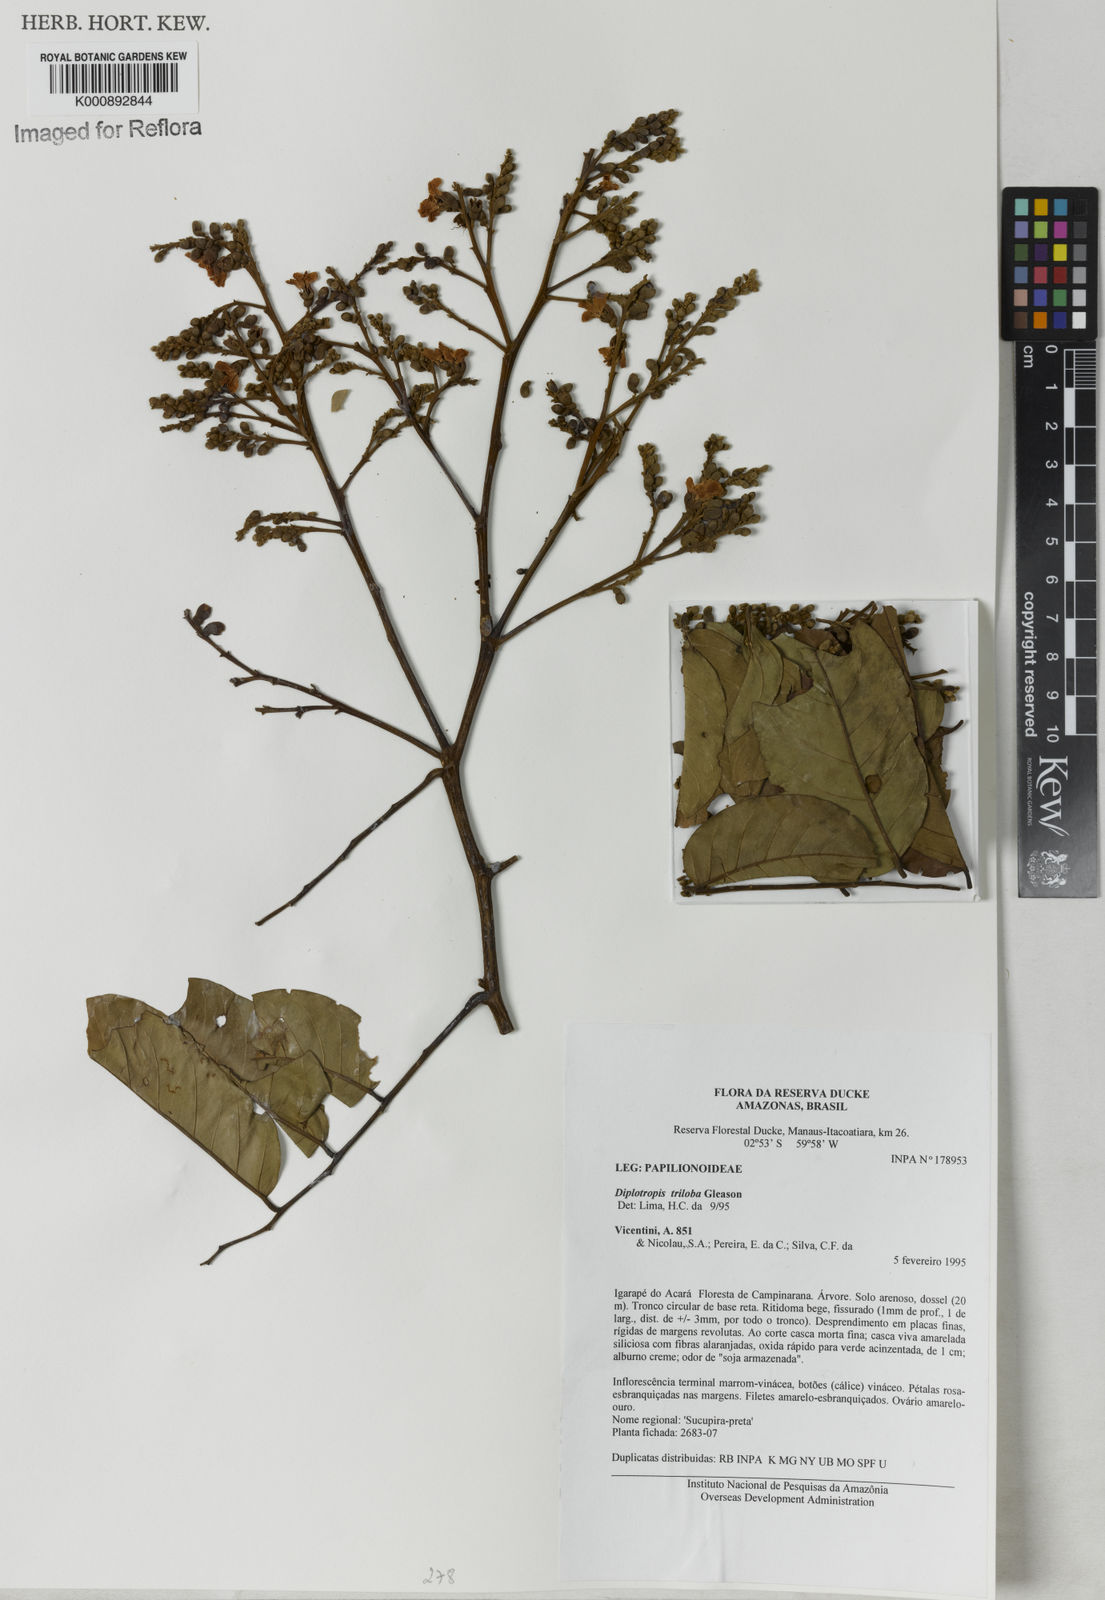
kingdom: Plantae
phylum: Tracheophyta
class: Magnoliopsida
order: Fabales
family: Fabaceae
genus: Diplotropis
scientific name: Diplotropis triloba
